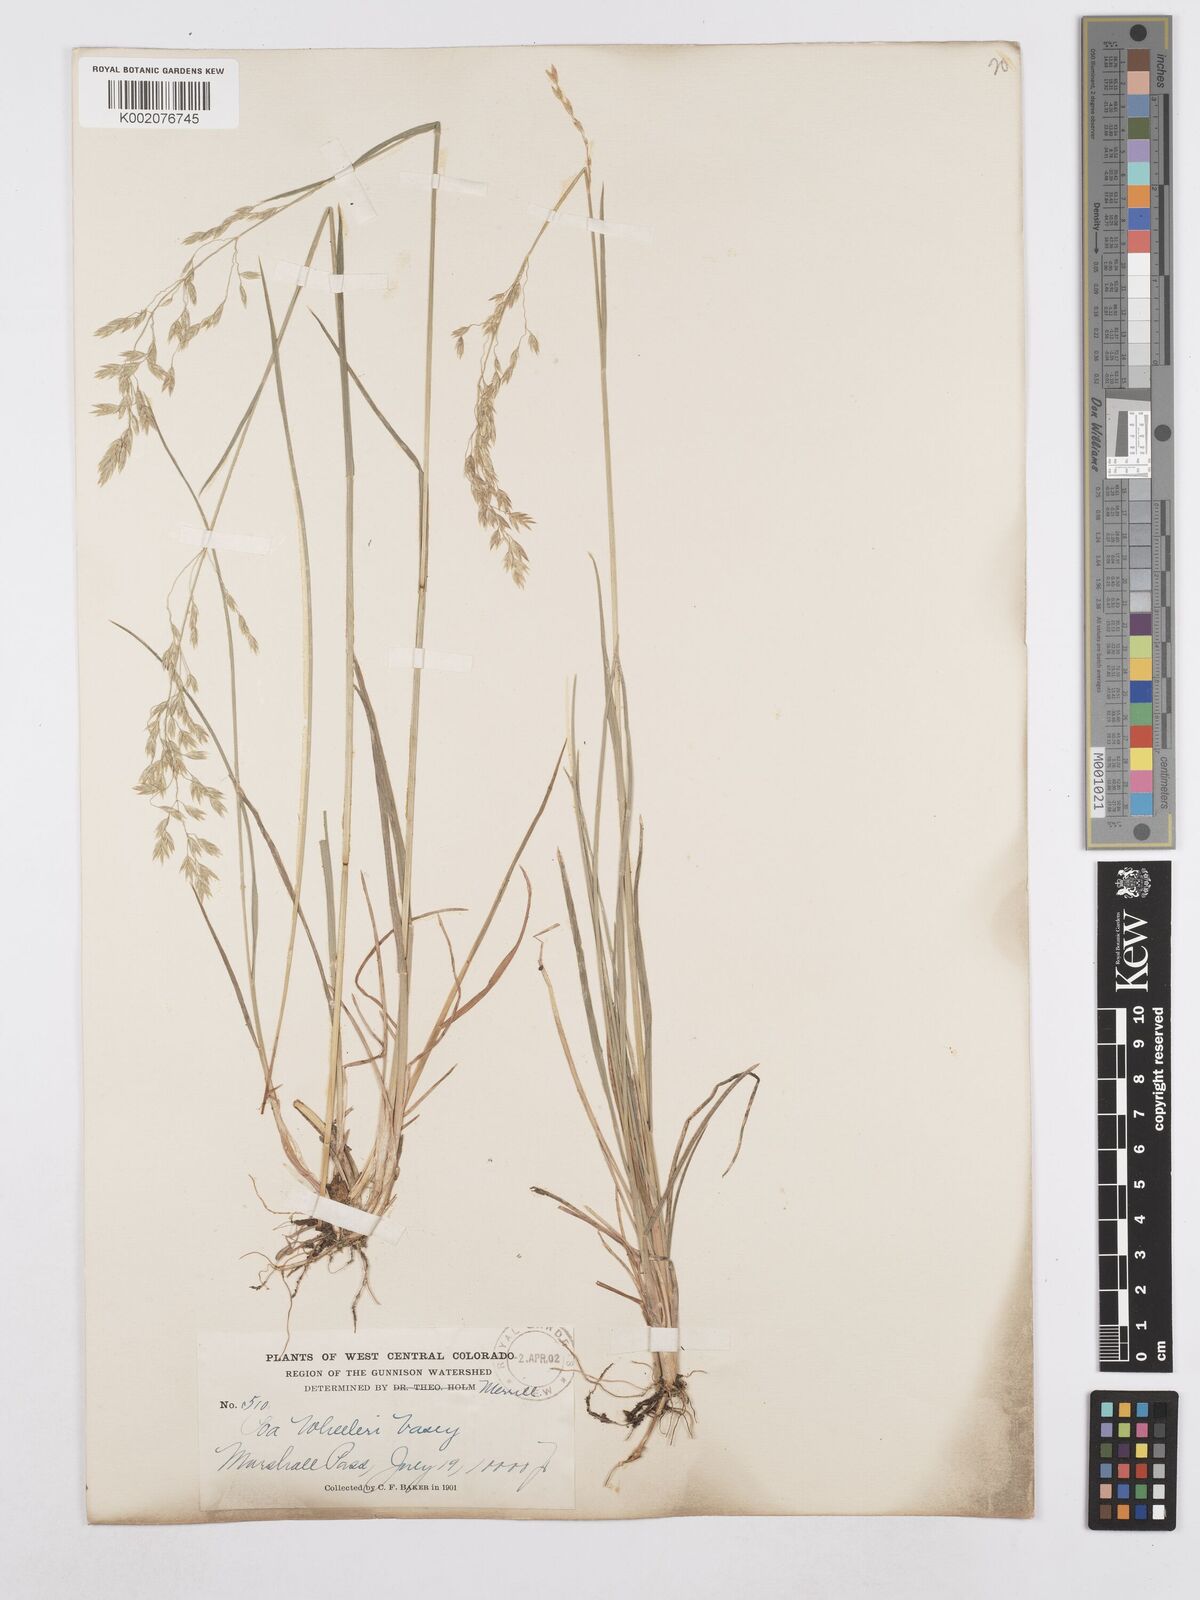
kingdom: Plantae
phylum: Tracheophyta
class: Liliopsida
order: Poales
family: Poaceae
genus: Poa
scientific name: Poa wheeleri
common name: Wheeler's bluegrass
